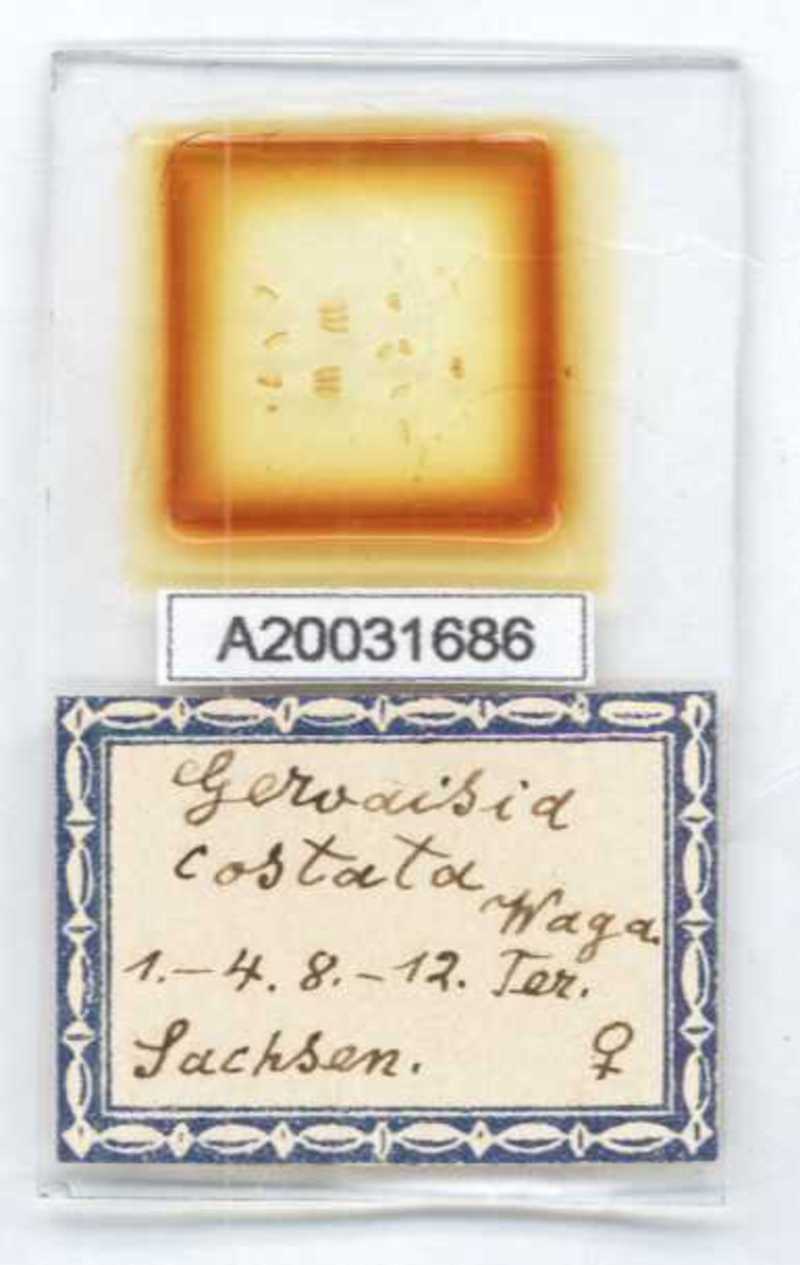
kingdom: Animalia
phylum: Arthropoda
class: Diplopoda
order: Glomerida
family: Glomeridae
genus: Trachysphaera
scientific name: Trachysphaera costata
